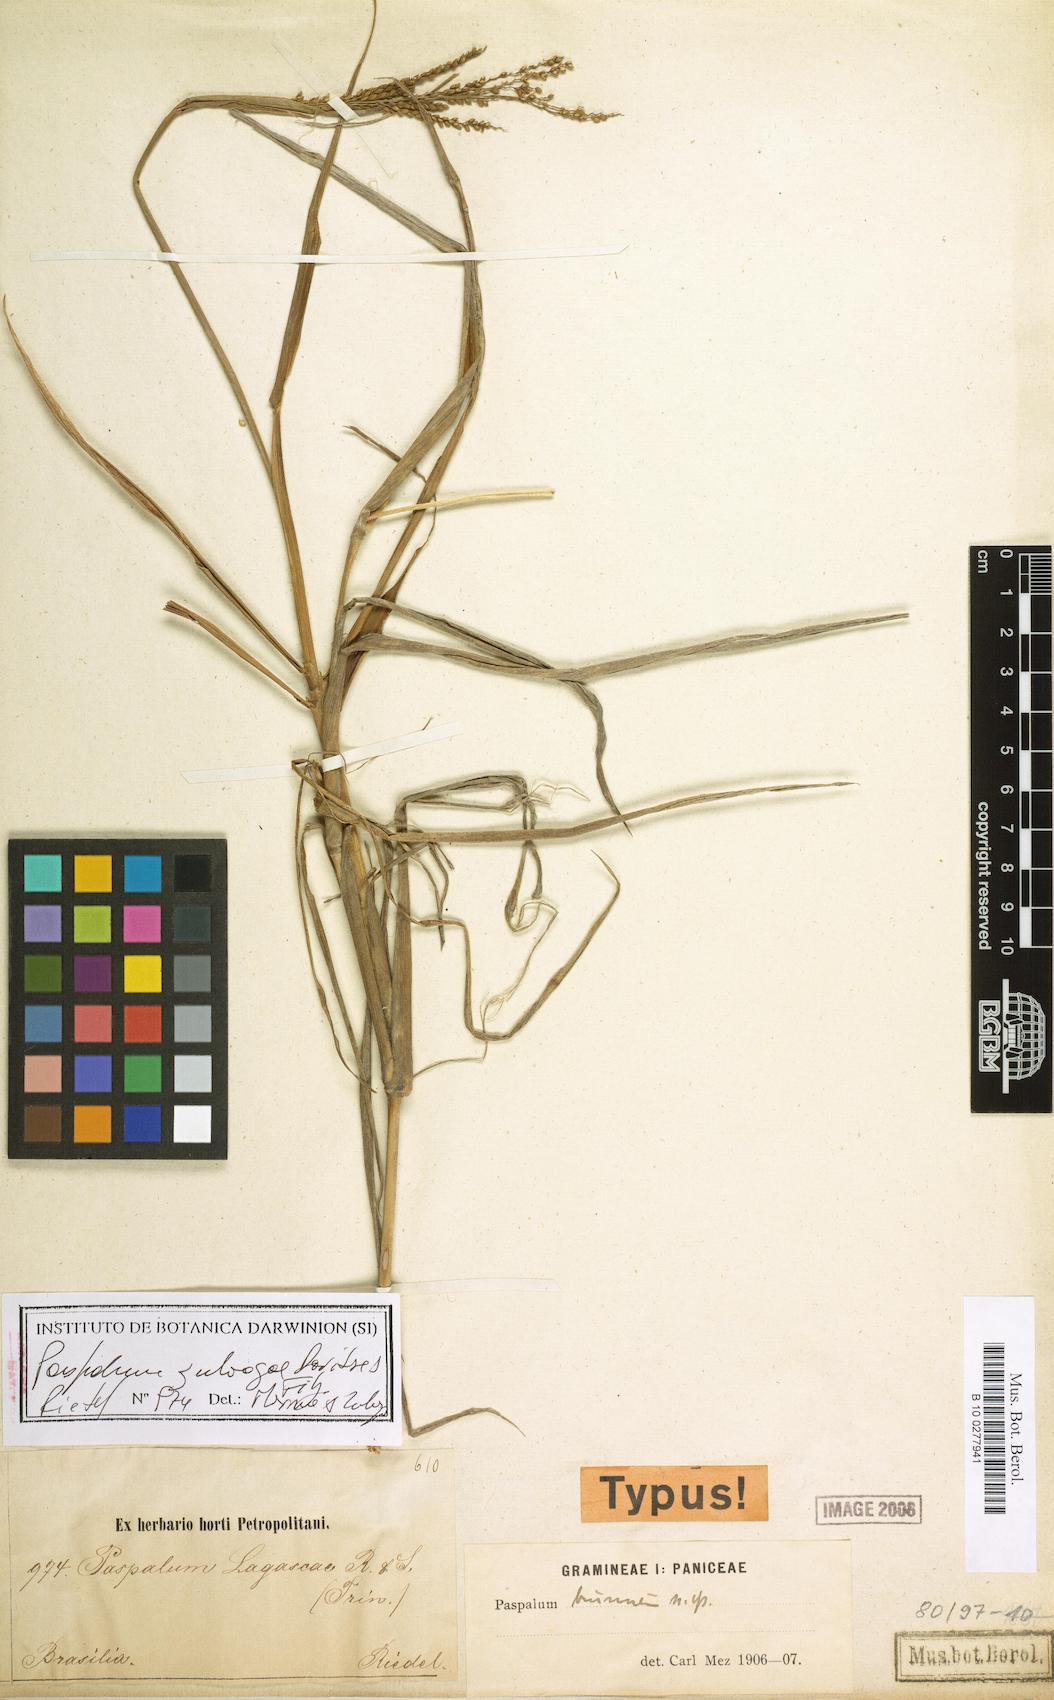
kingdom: Plantae
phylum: Tracheophyta
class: Liliopsida
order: Poales
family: Poaceae
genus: Paspalum
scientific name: Paspalum zuloagae
